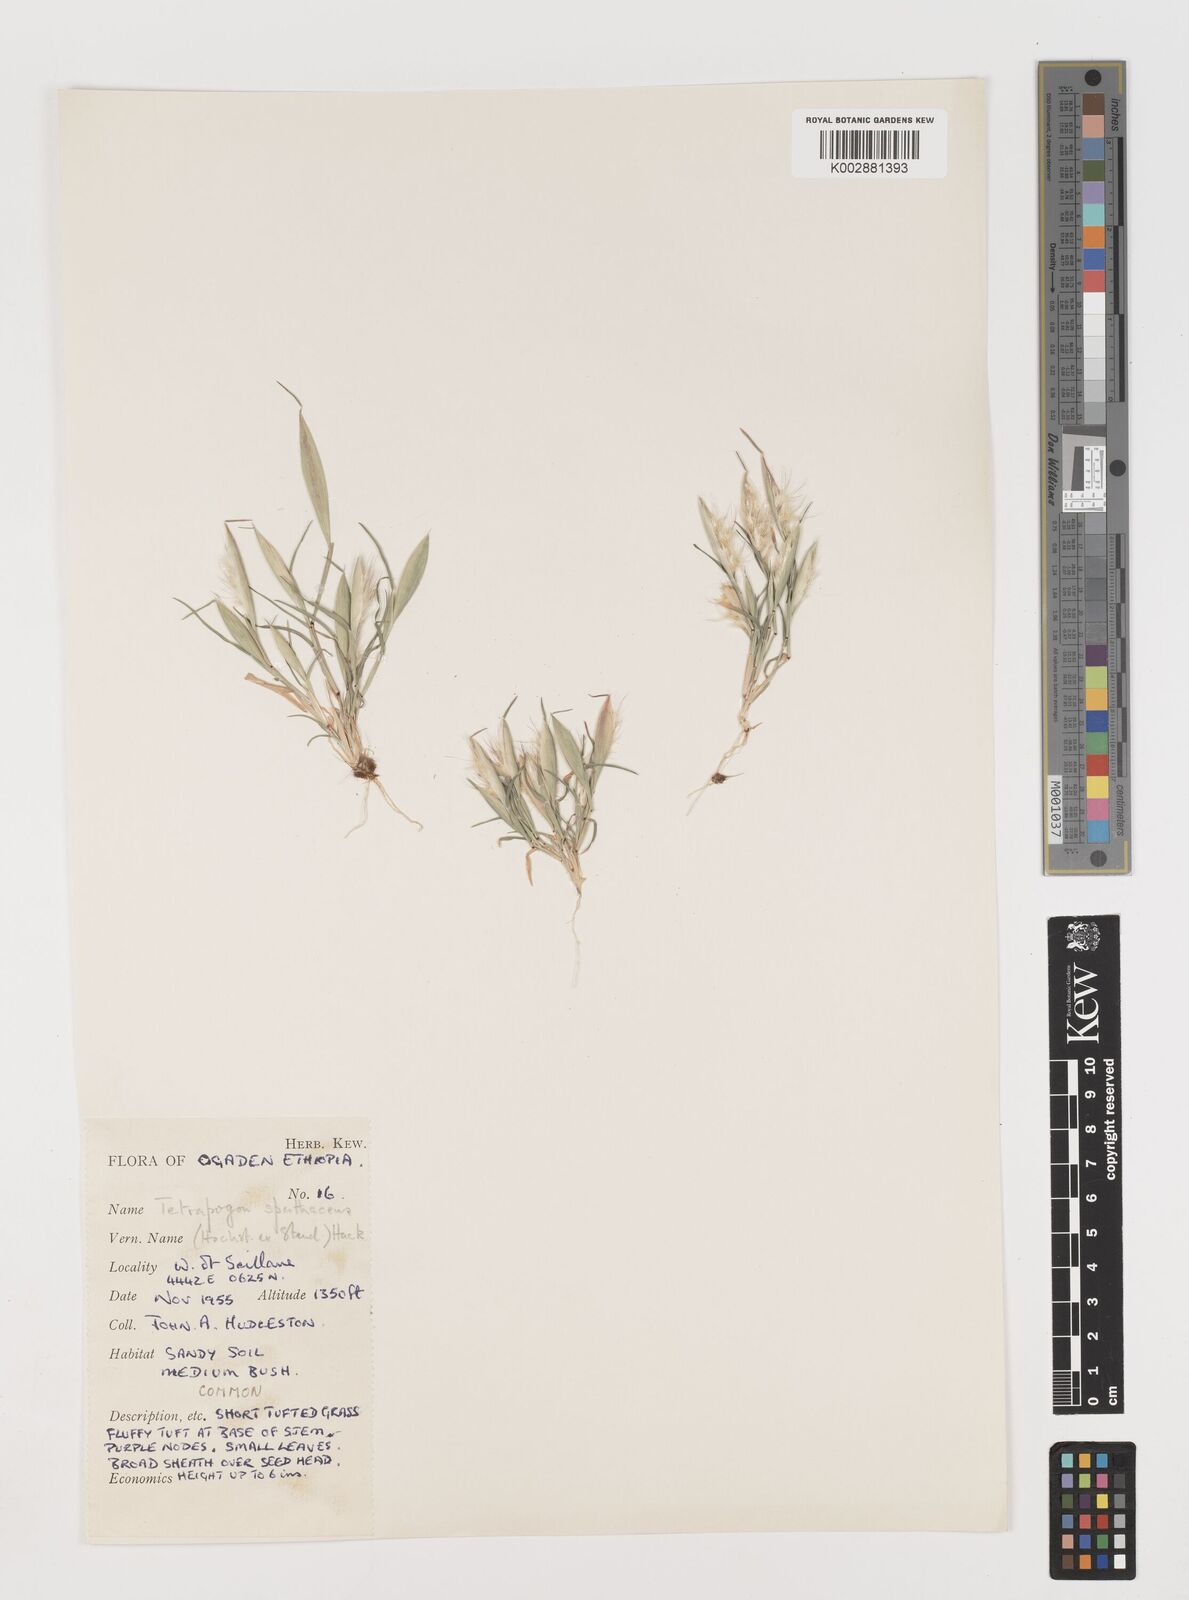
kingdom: Plantae
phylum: Tracheophyta
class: Liliopsida
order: Poales
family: Poaceae
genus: Tetrapogon
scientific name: Tetrapogon cenchriformis
